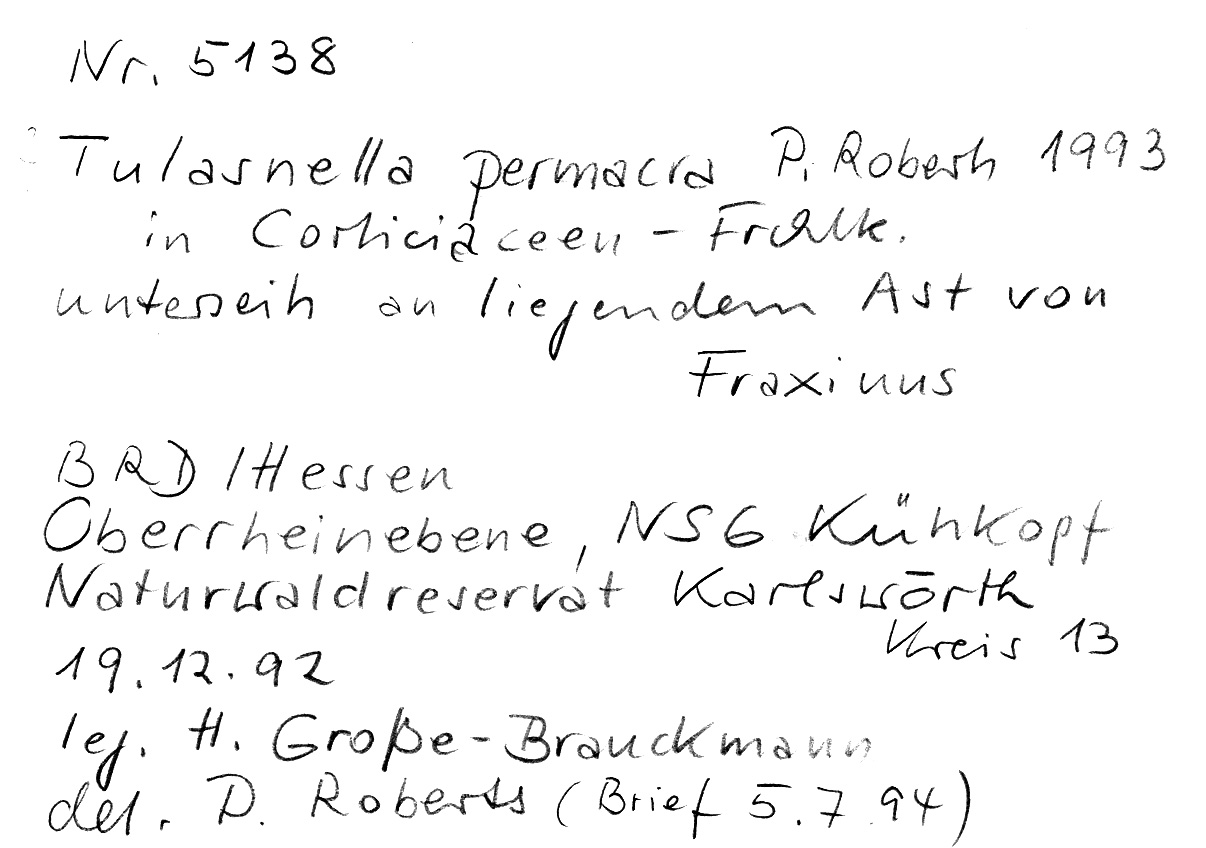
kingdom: Plantae
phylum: Tracheophyta
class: Magnoliopsida
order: Lamiales
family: Oleaceae
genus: Fraxinus
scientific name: Fraxinus
